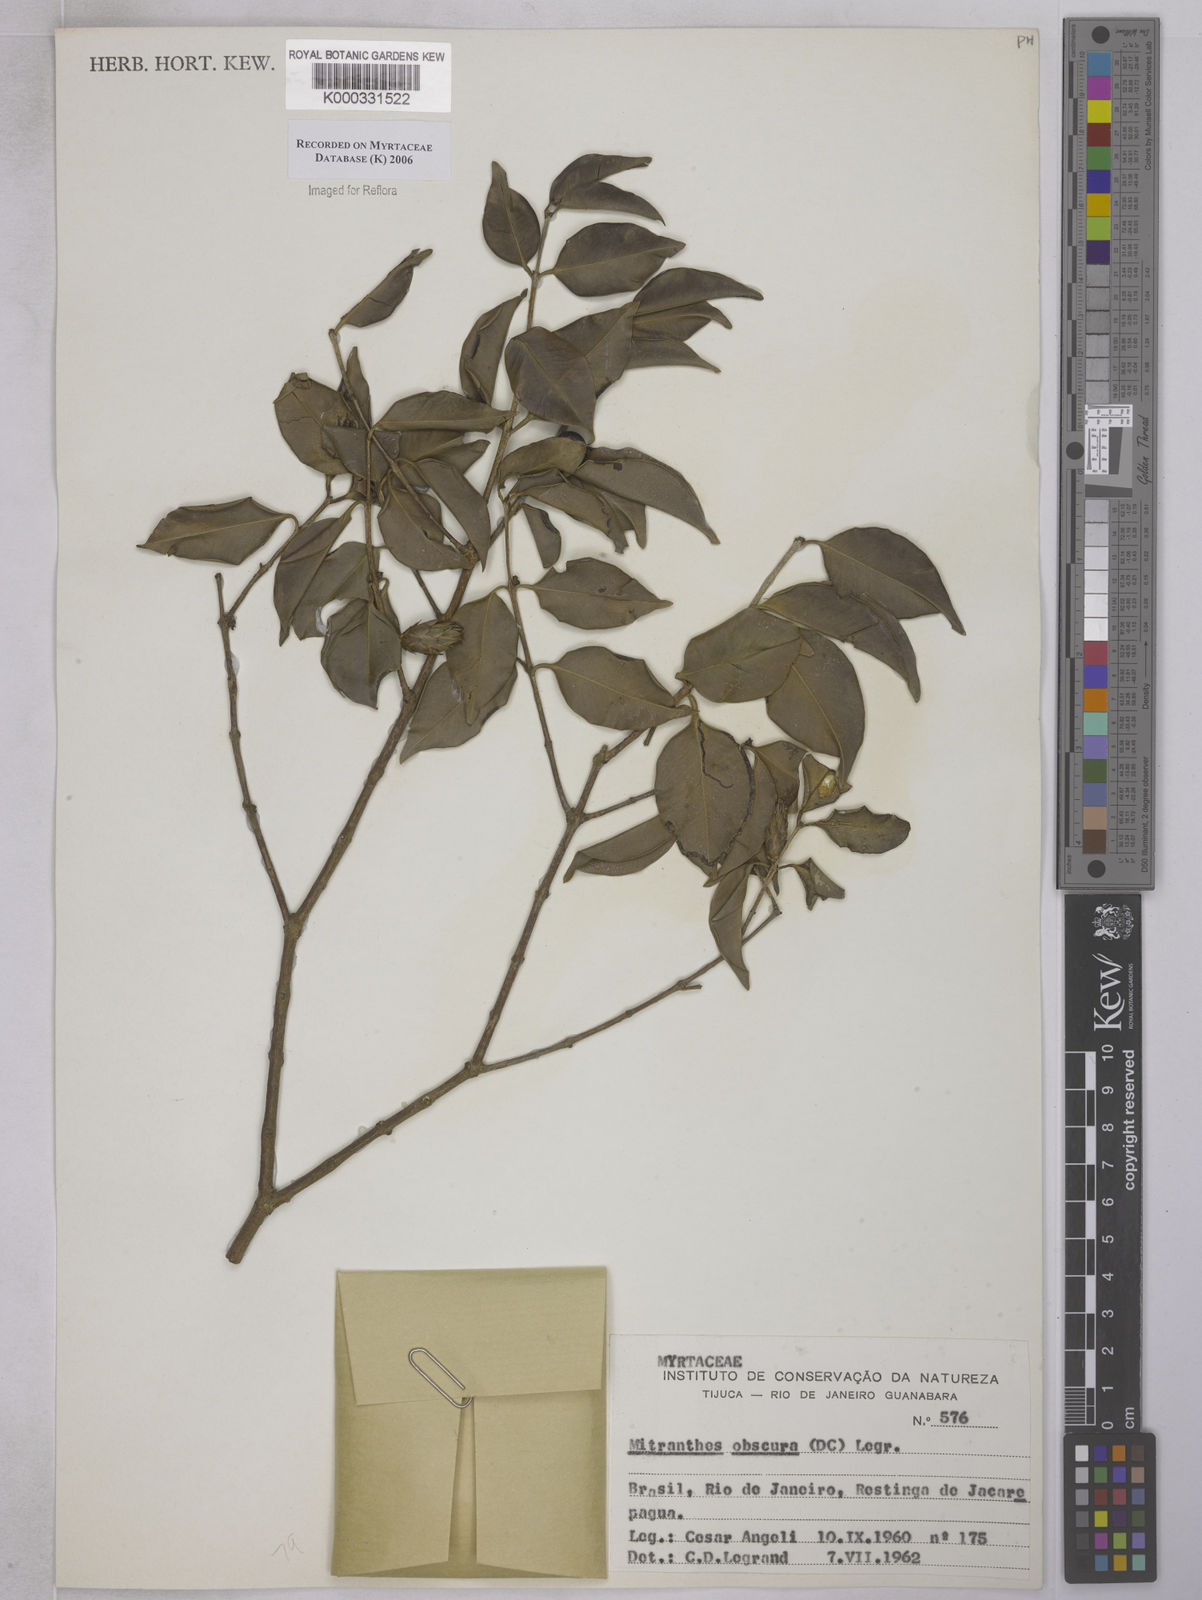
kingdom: Plantae
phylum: Tracheophyta
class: Magnoliopsida
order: Myrtales
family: Myrtaceae
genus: Neomitranthes
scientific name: Neomitranthes obscura
